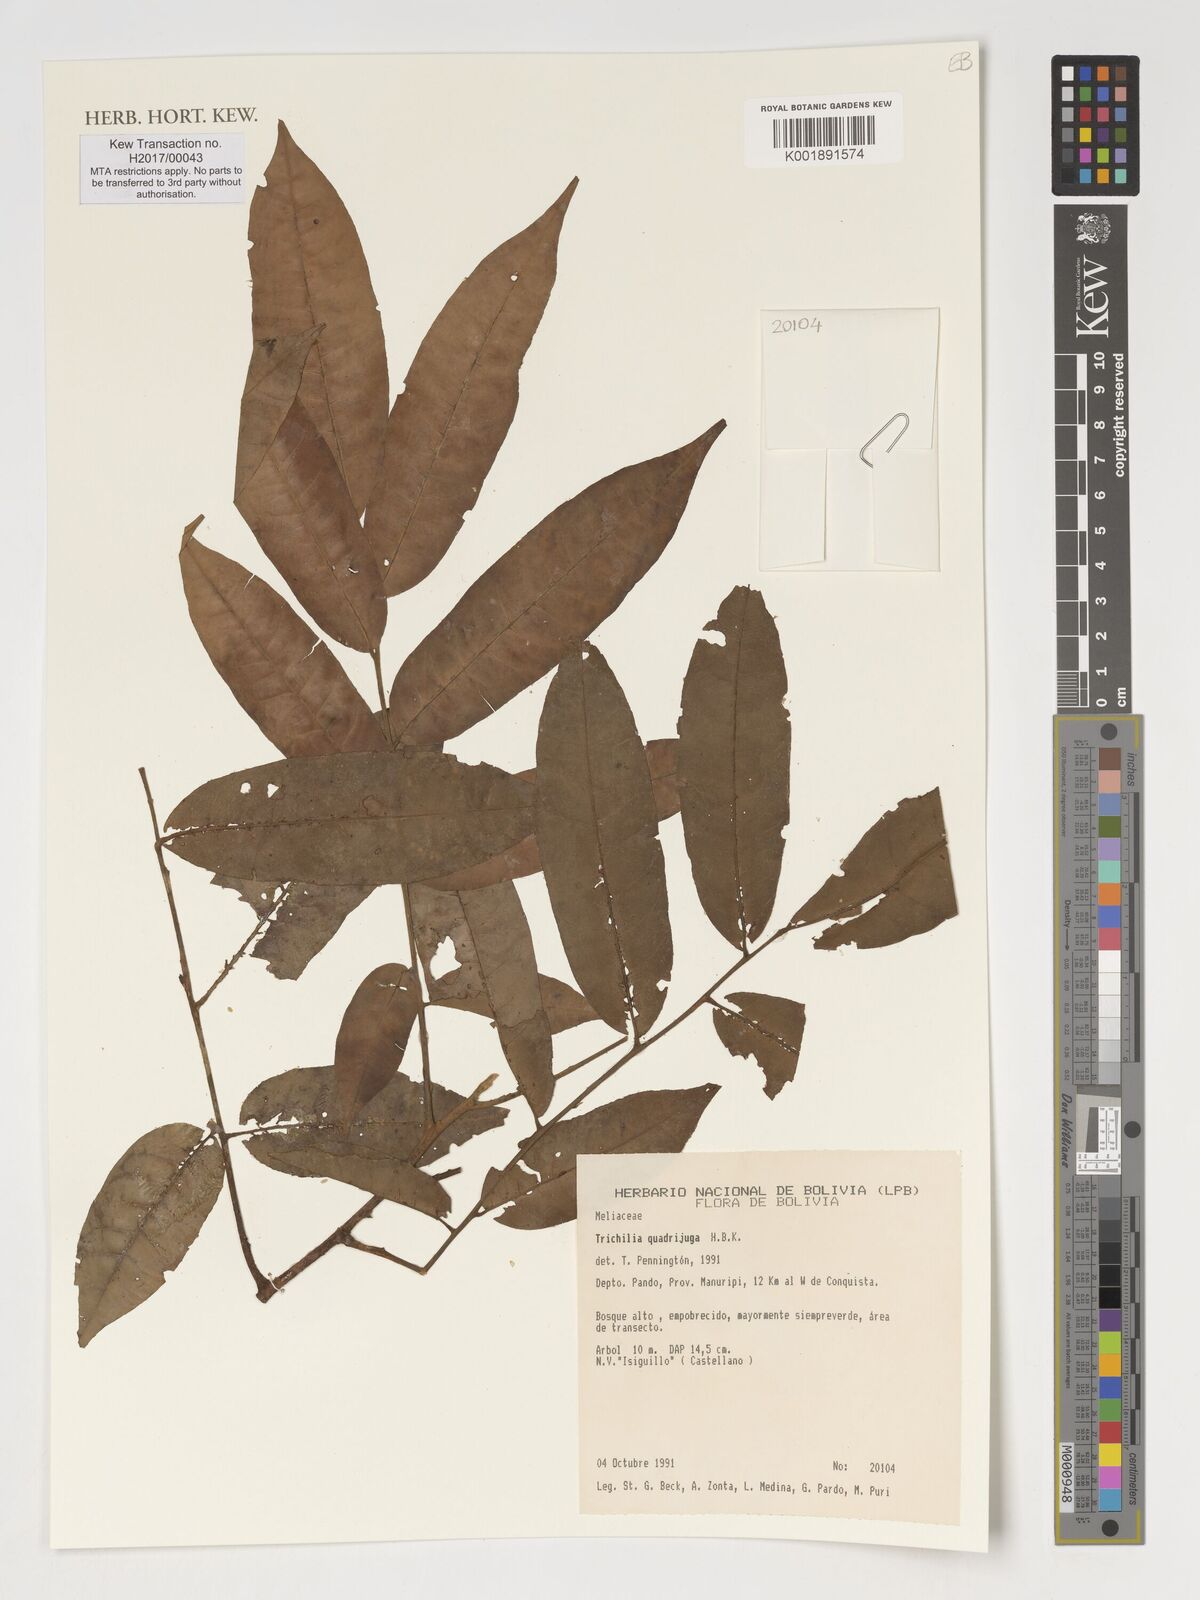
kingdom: Plantae
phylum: Tracheophyta
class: Magnoliopsida
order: Sapindales
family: Meliaceae
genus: Trichilia
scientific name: Trichilia
